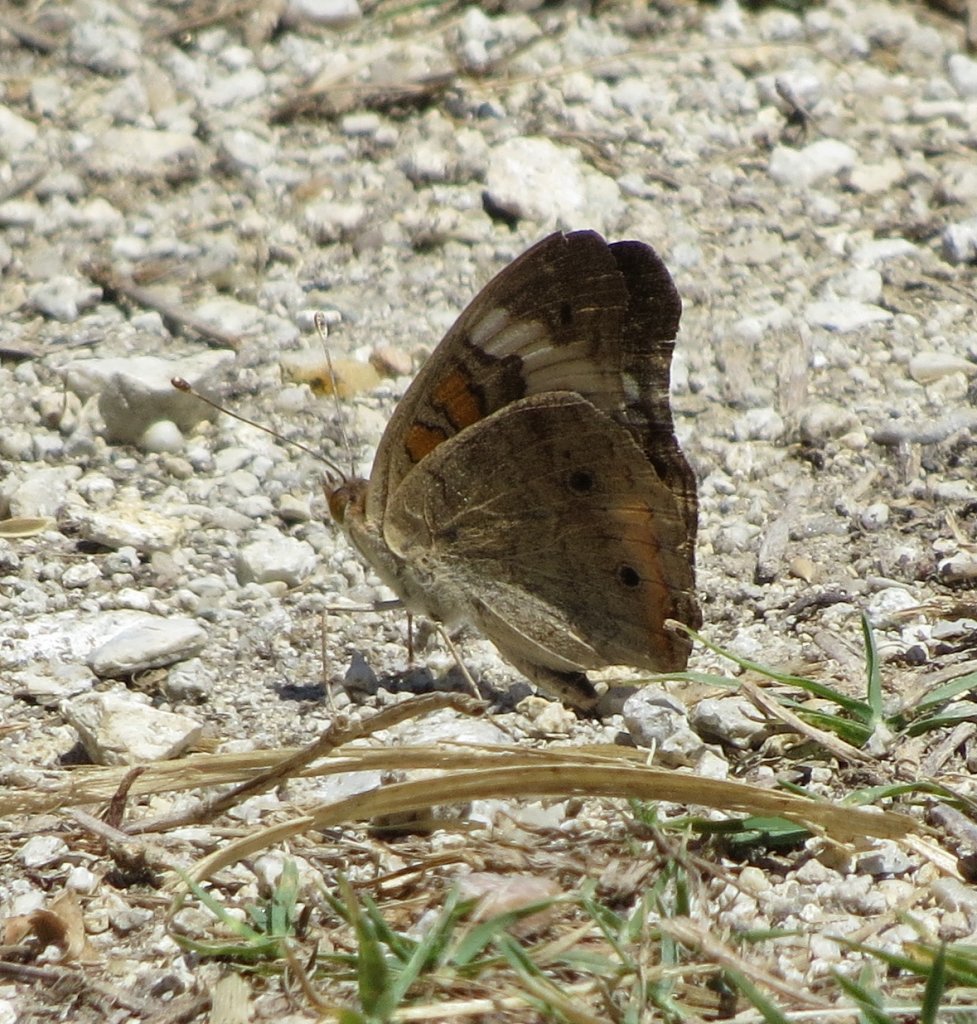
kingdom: Animalia
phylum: Arthropoda
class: Insecta
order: Lepidoptera
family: Nymphalidae
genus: Junonia
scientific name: Junonia coenia
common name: Common Buckeye
